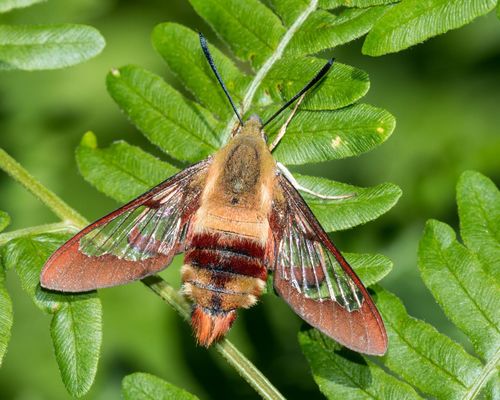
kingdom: Animalia
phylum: Arthropoda
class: Insecta
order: Lepidoptera
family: Sphingidae
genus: Hemaris
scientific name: Hemaris thysbe
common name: Common clear-wing
